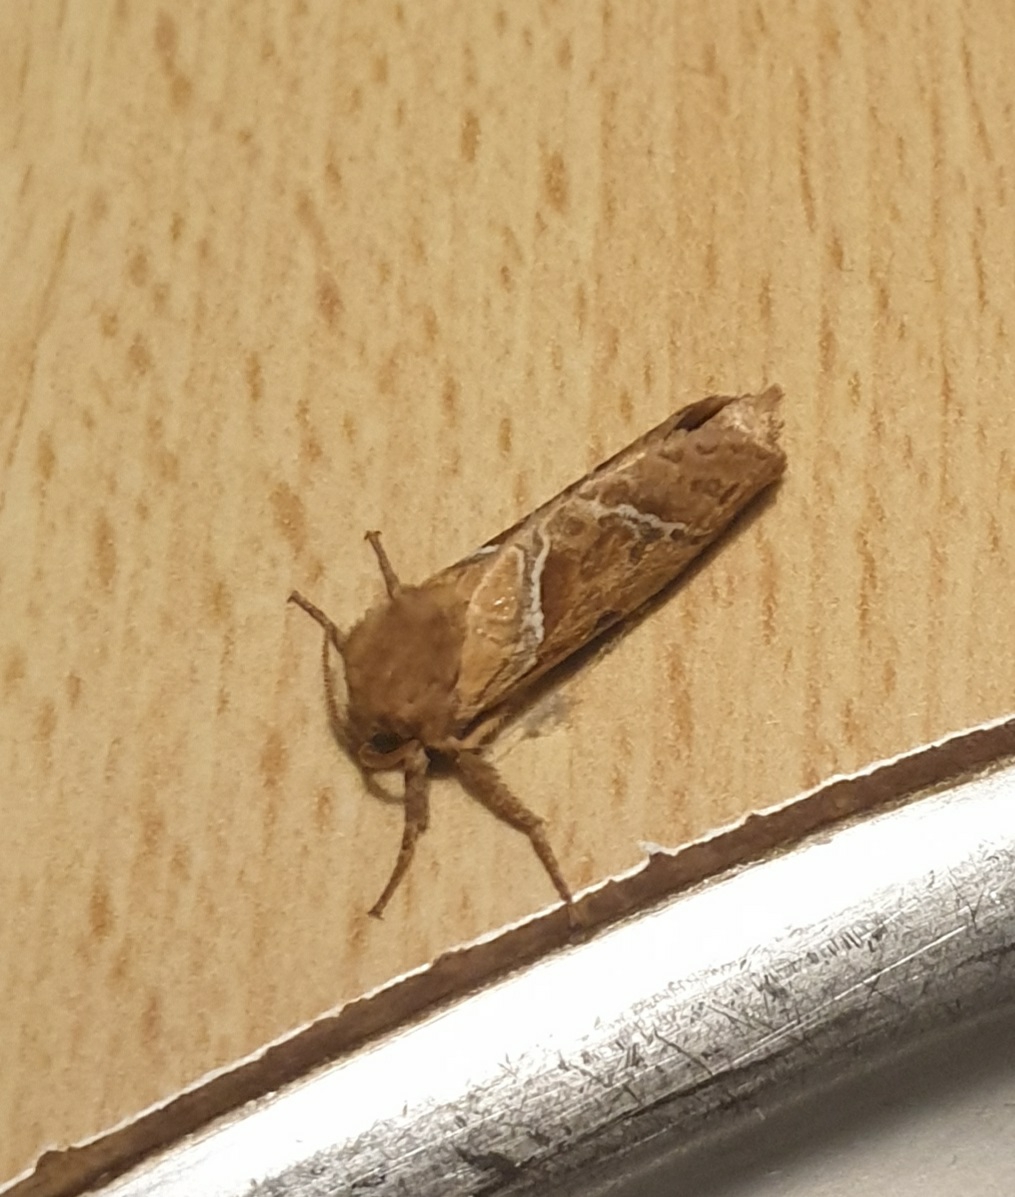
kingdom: Animalia
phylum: Arthropoda
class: Insecta
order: Lepidoptera
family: Hepialidae
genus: Triodia
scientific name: Triodia sylvina
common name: Skræpperodæder
